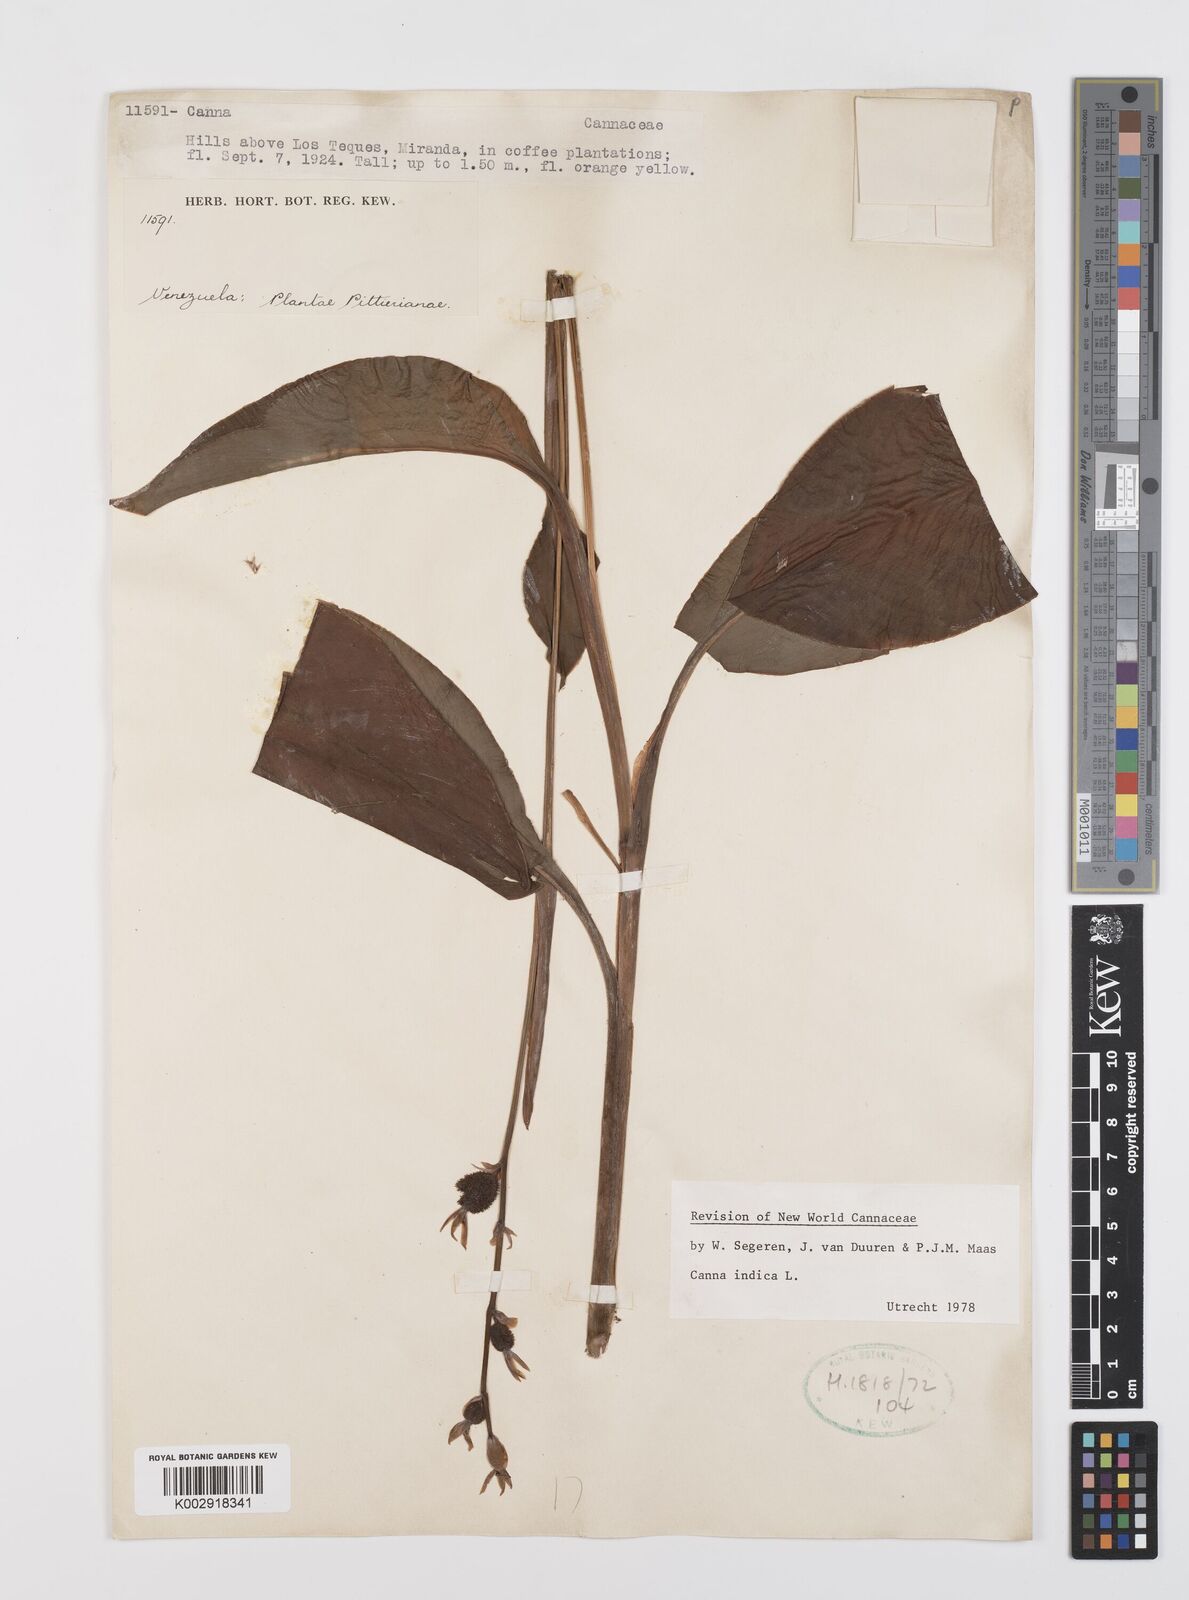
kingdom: Plantae
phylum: Tracheophyta
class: Liliopsida
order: Zingiberales
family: Cannaceae
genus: Canna
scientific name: Canna indica
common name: Indian shot
